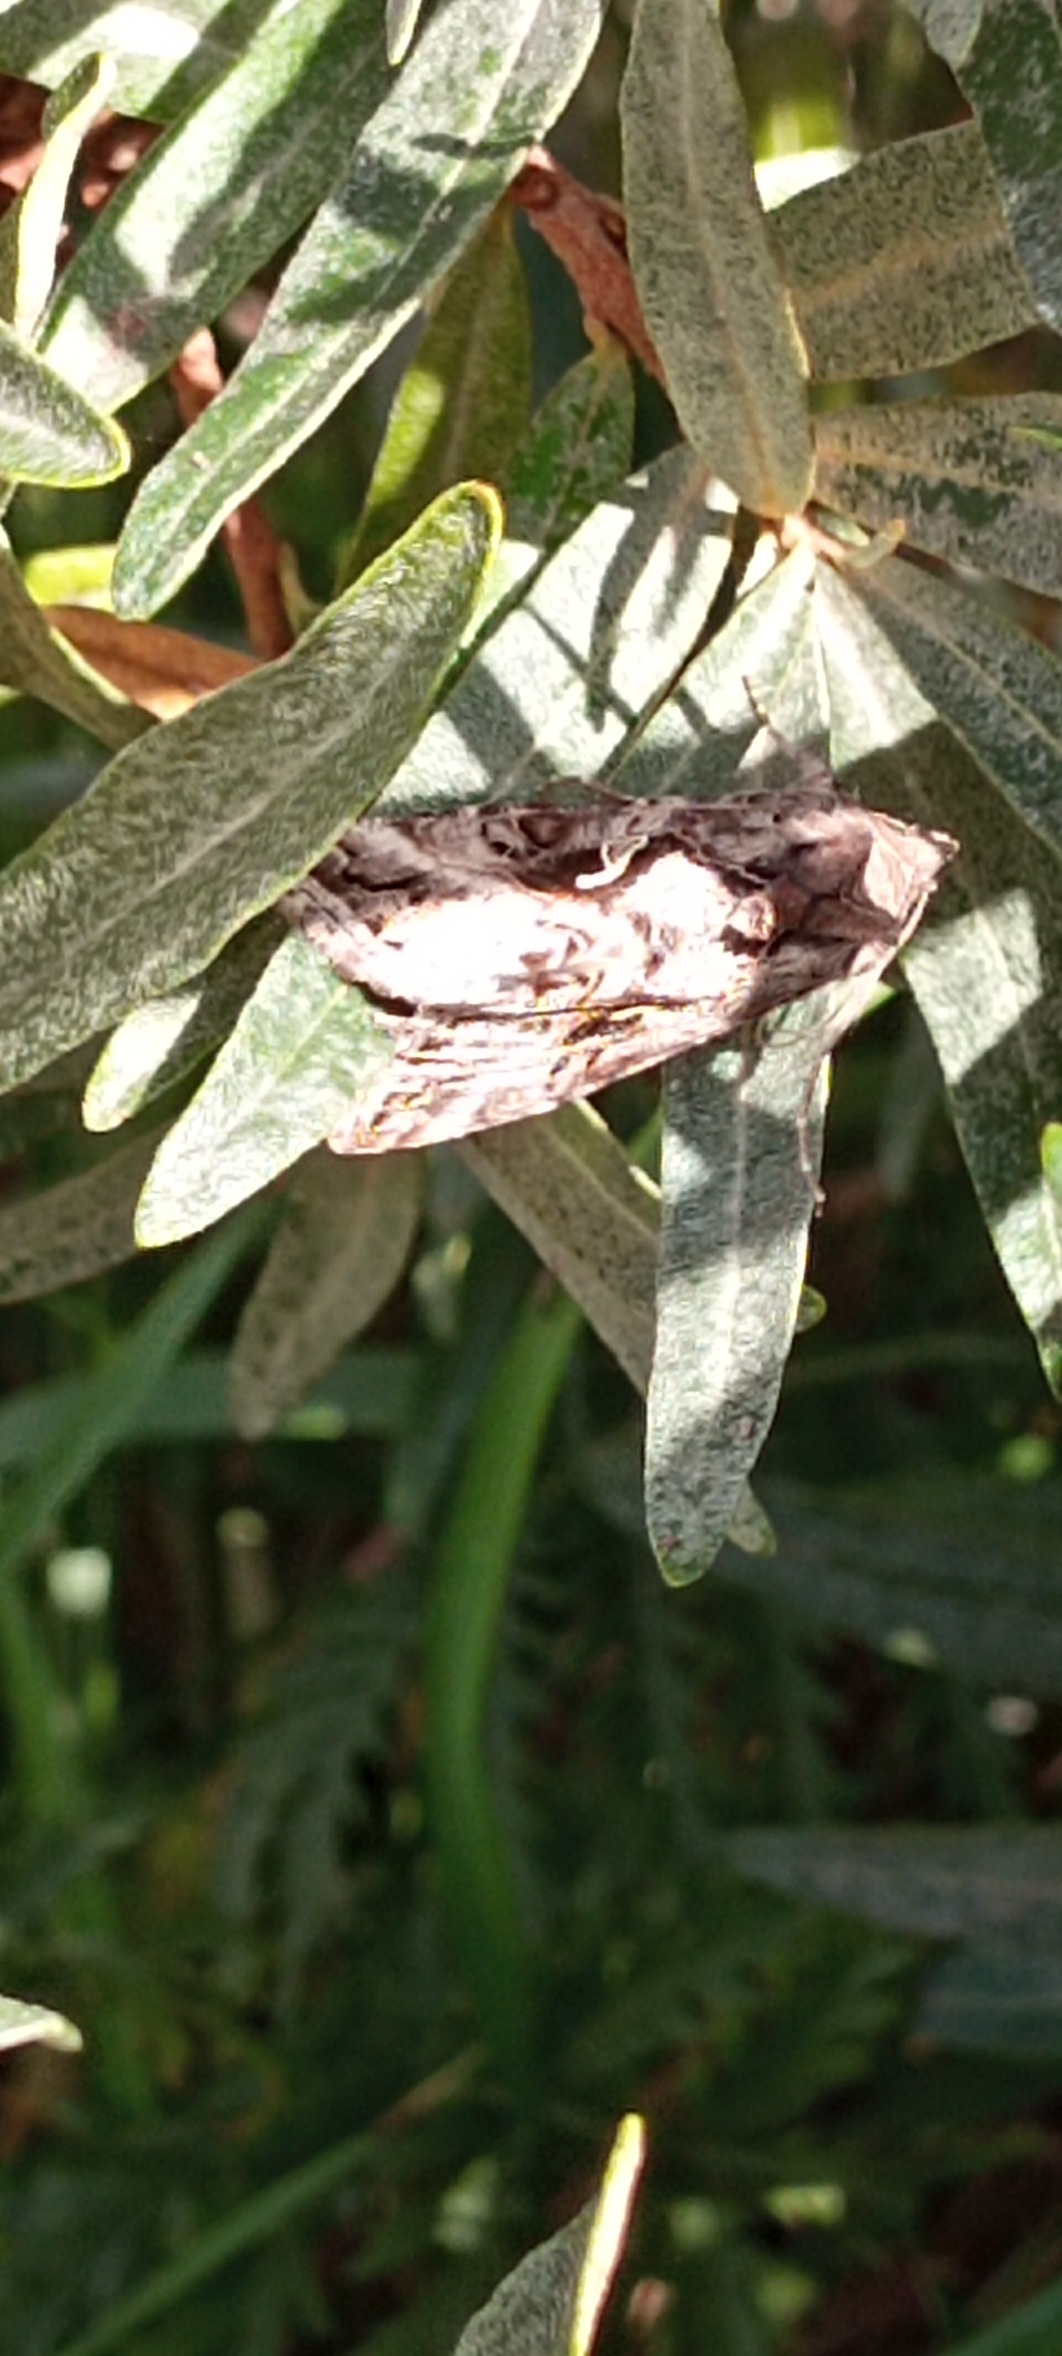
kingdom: Animalia
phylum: Arthropoda
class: Insecta
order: Lepidoptera
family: Noctuidae
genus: Autographa
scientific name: Autographa gamma
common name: Gammaugle
